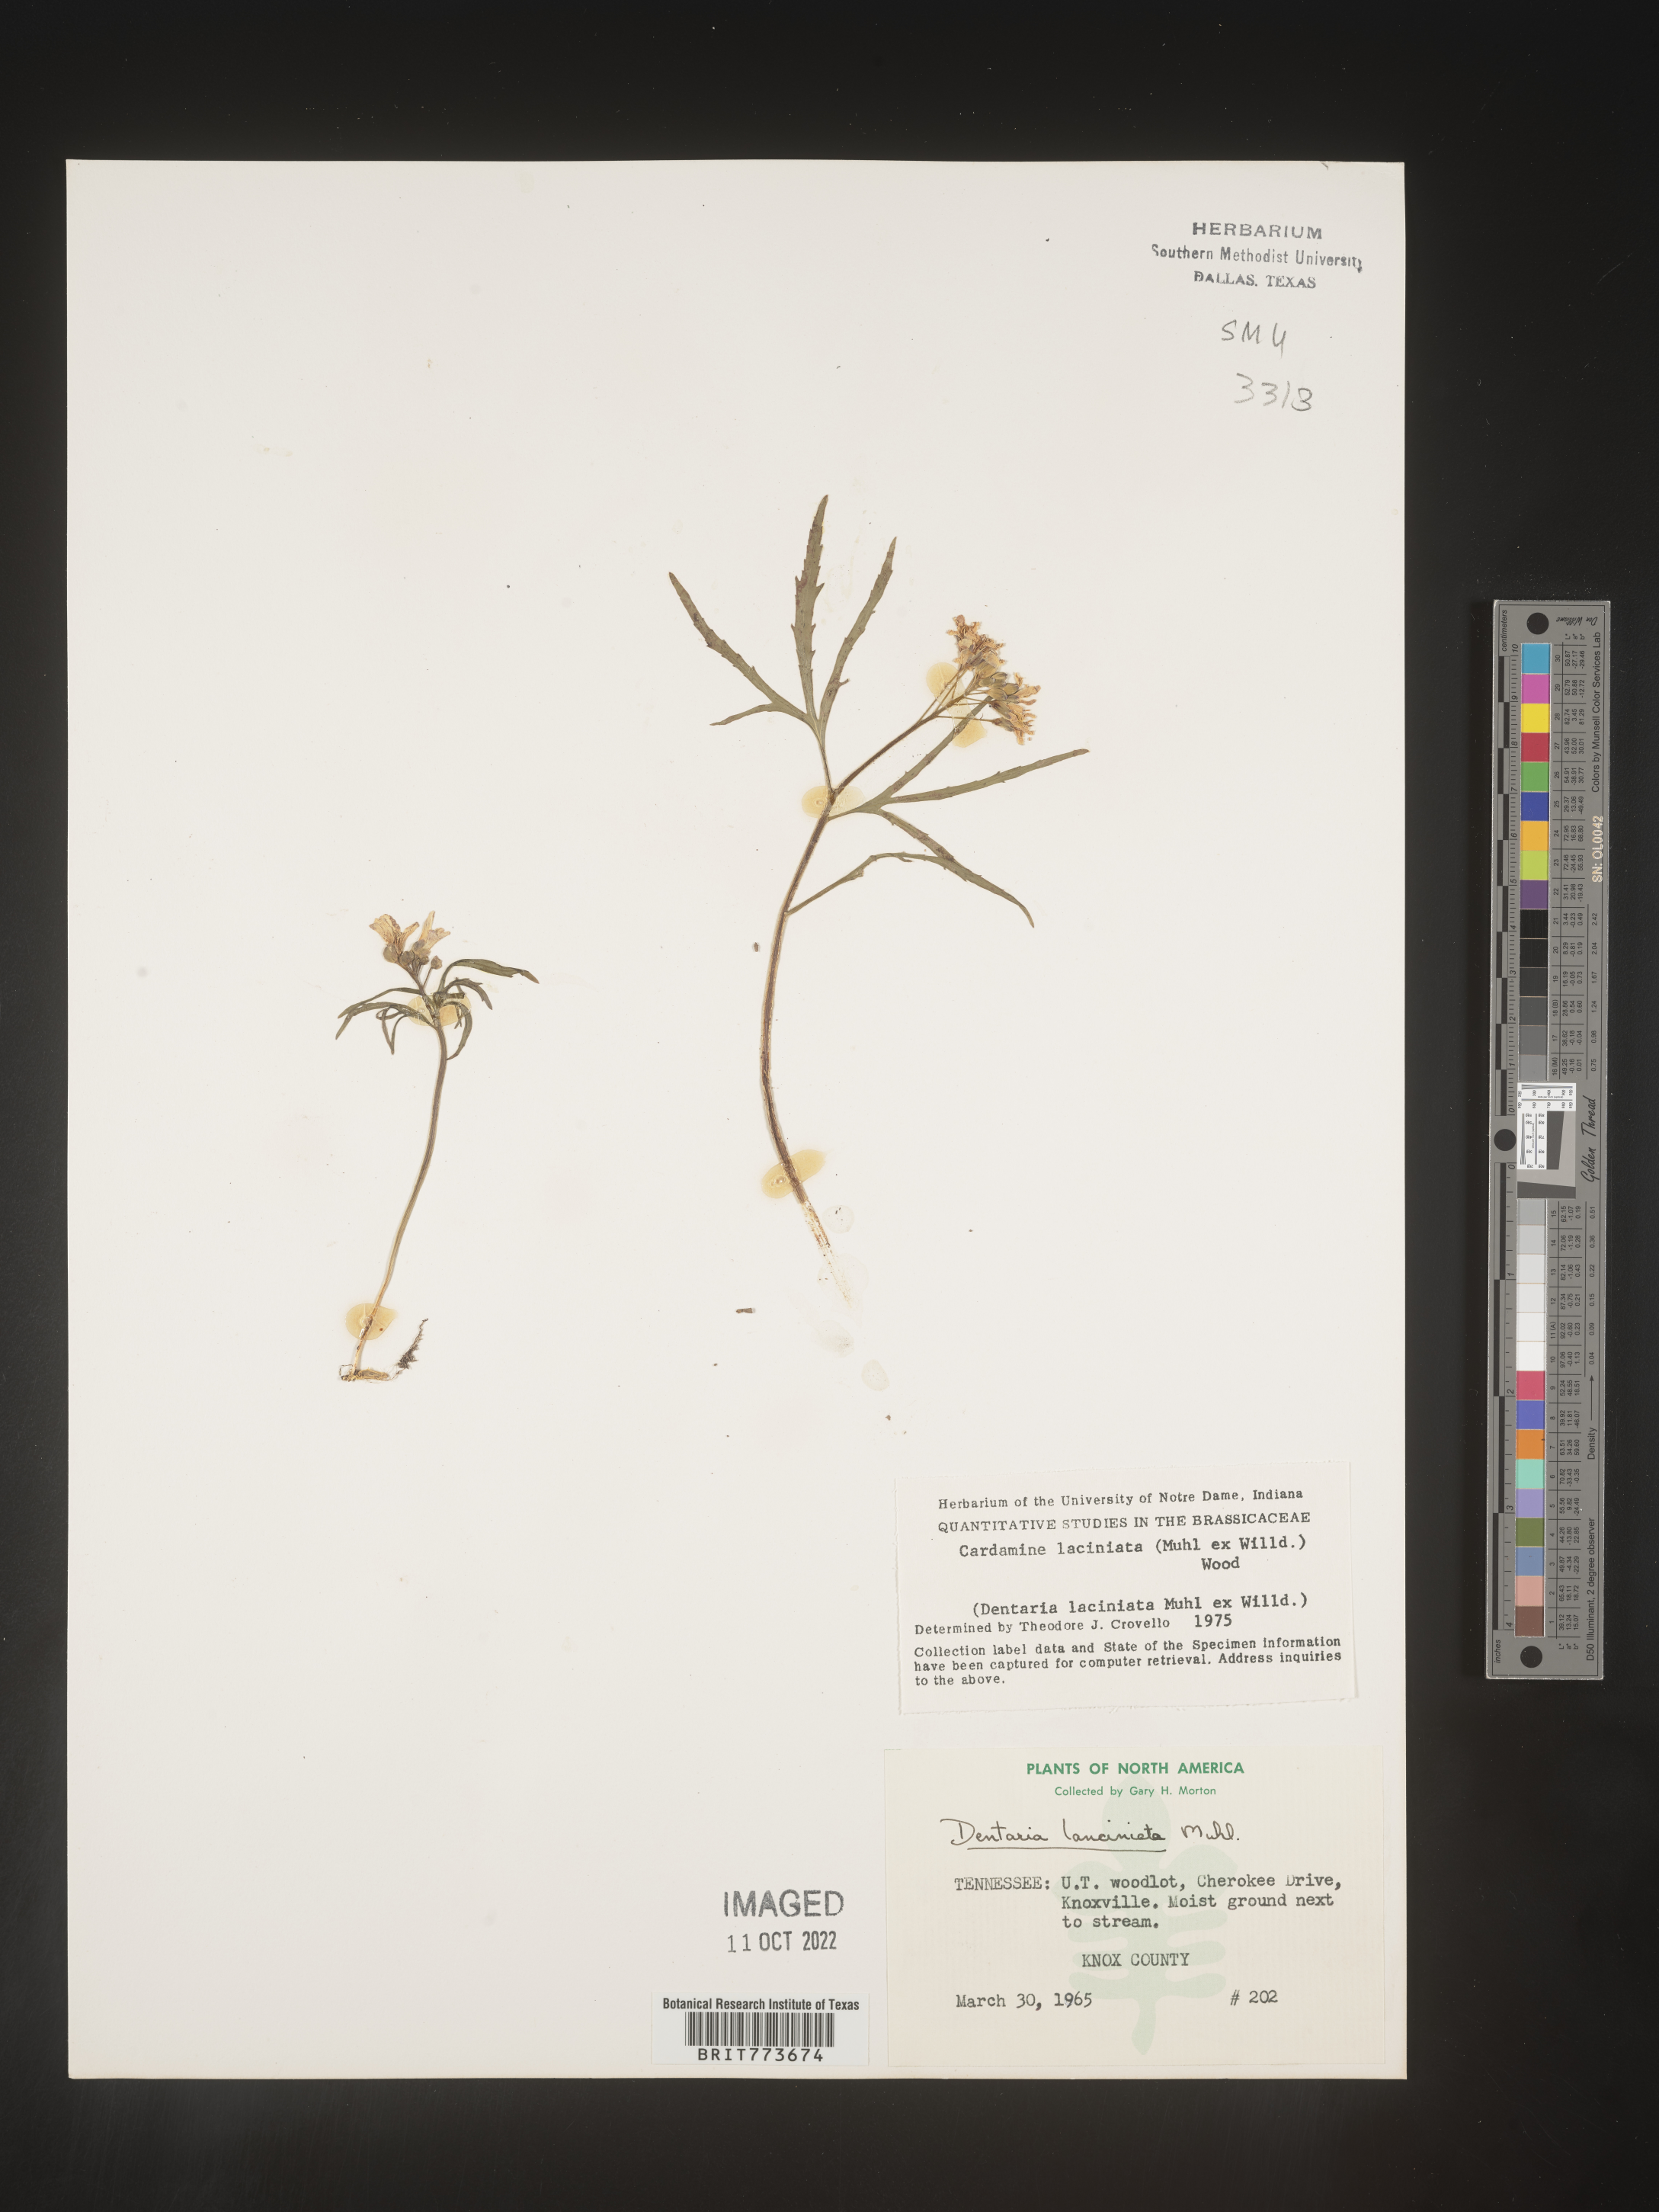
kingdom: Plantae
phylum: Tracheophyta
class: Magnoliopsida
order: Brassicales
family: Brassicaceae
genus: Rorippa
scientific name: Rorippa laciniata
